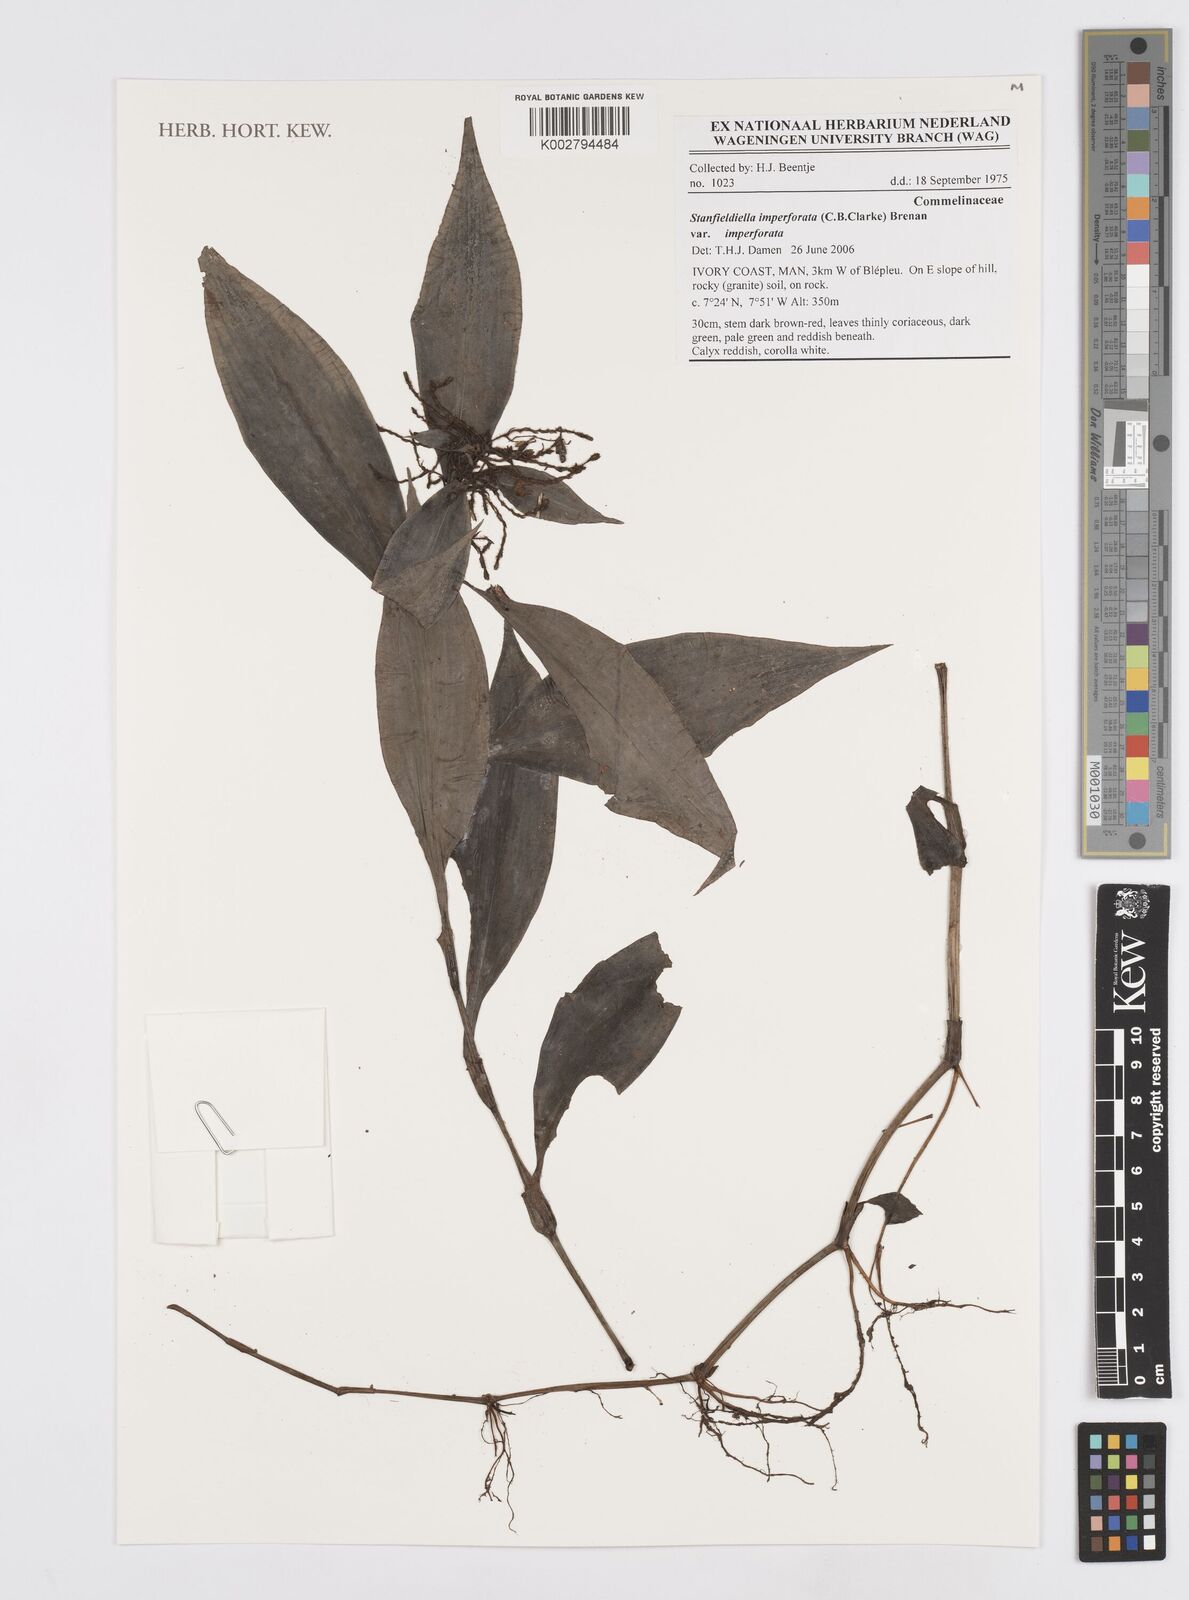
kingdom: Plantae
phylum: Tracheophyta
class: Liliopsida
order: Commelinales
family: Commelinaceae
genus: Stanfieldiella
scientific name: Stanfieldiella imperforata
